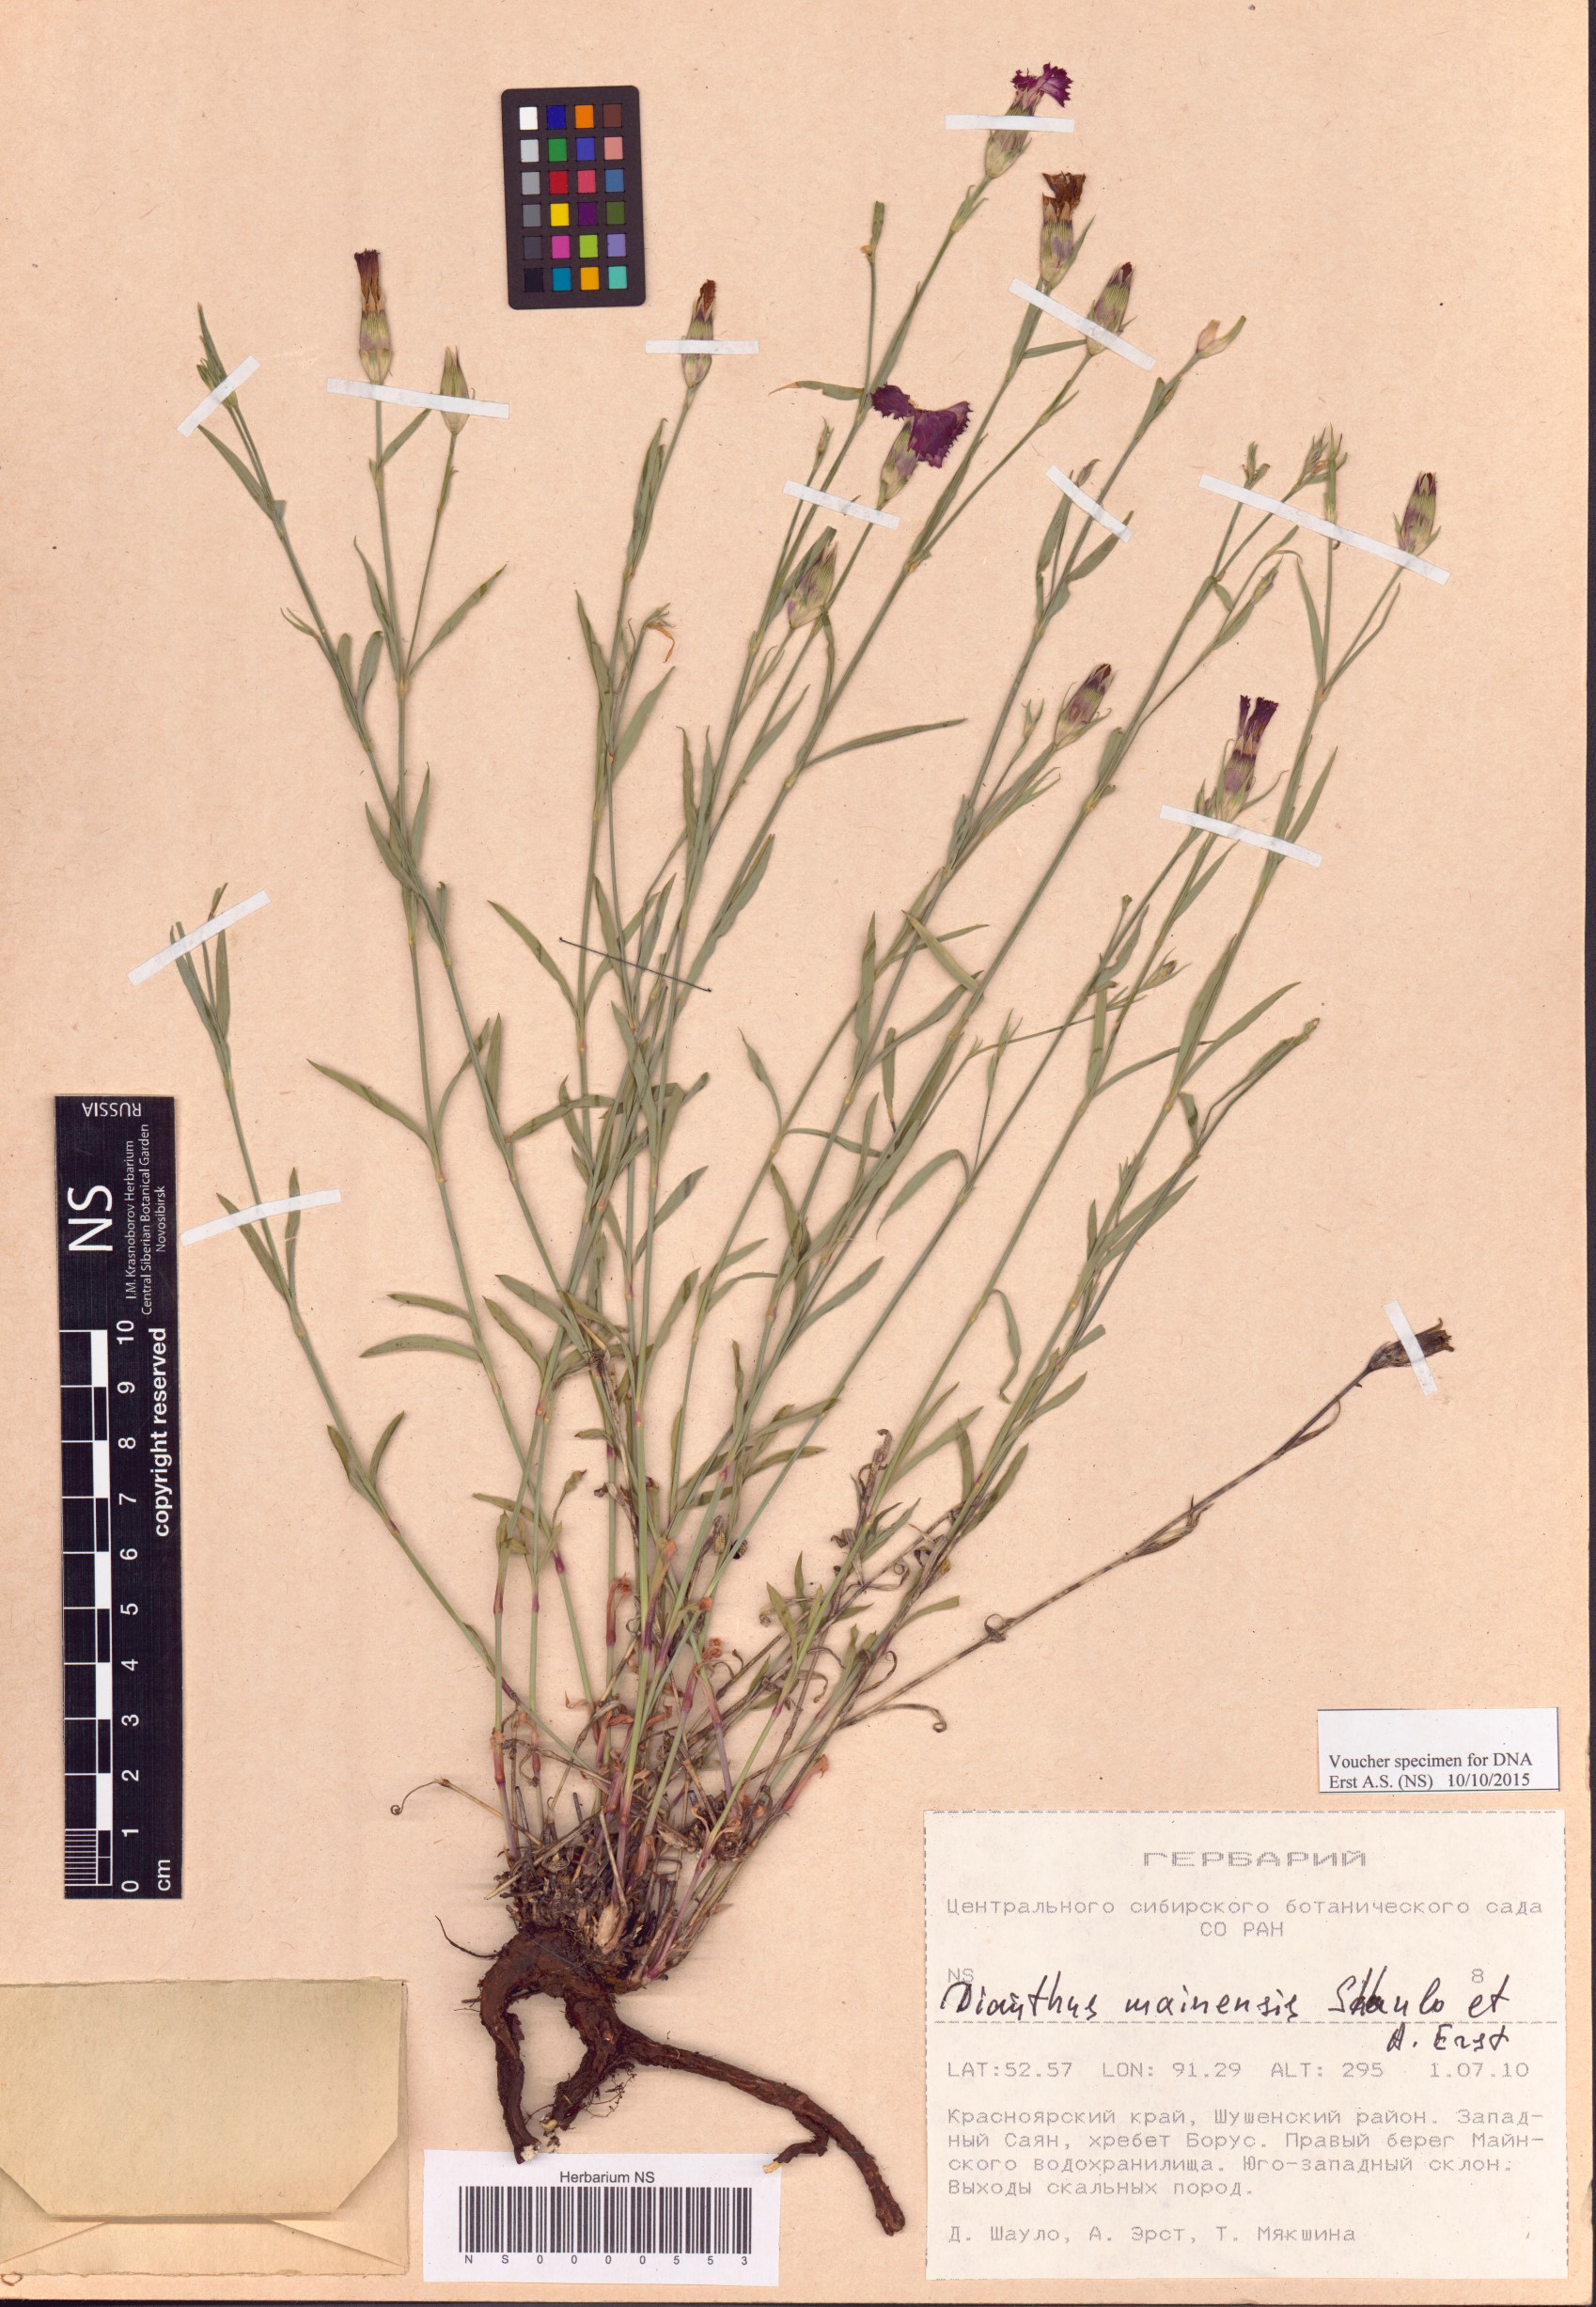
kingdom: Plantae
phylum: Tracheophyta
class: Magnoliopsida
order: Caryophyllales
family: Caryophyllaceae
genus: Dianthus
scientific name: Dianthus mainensis
